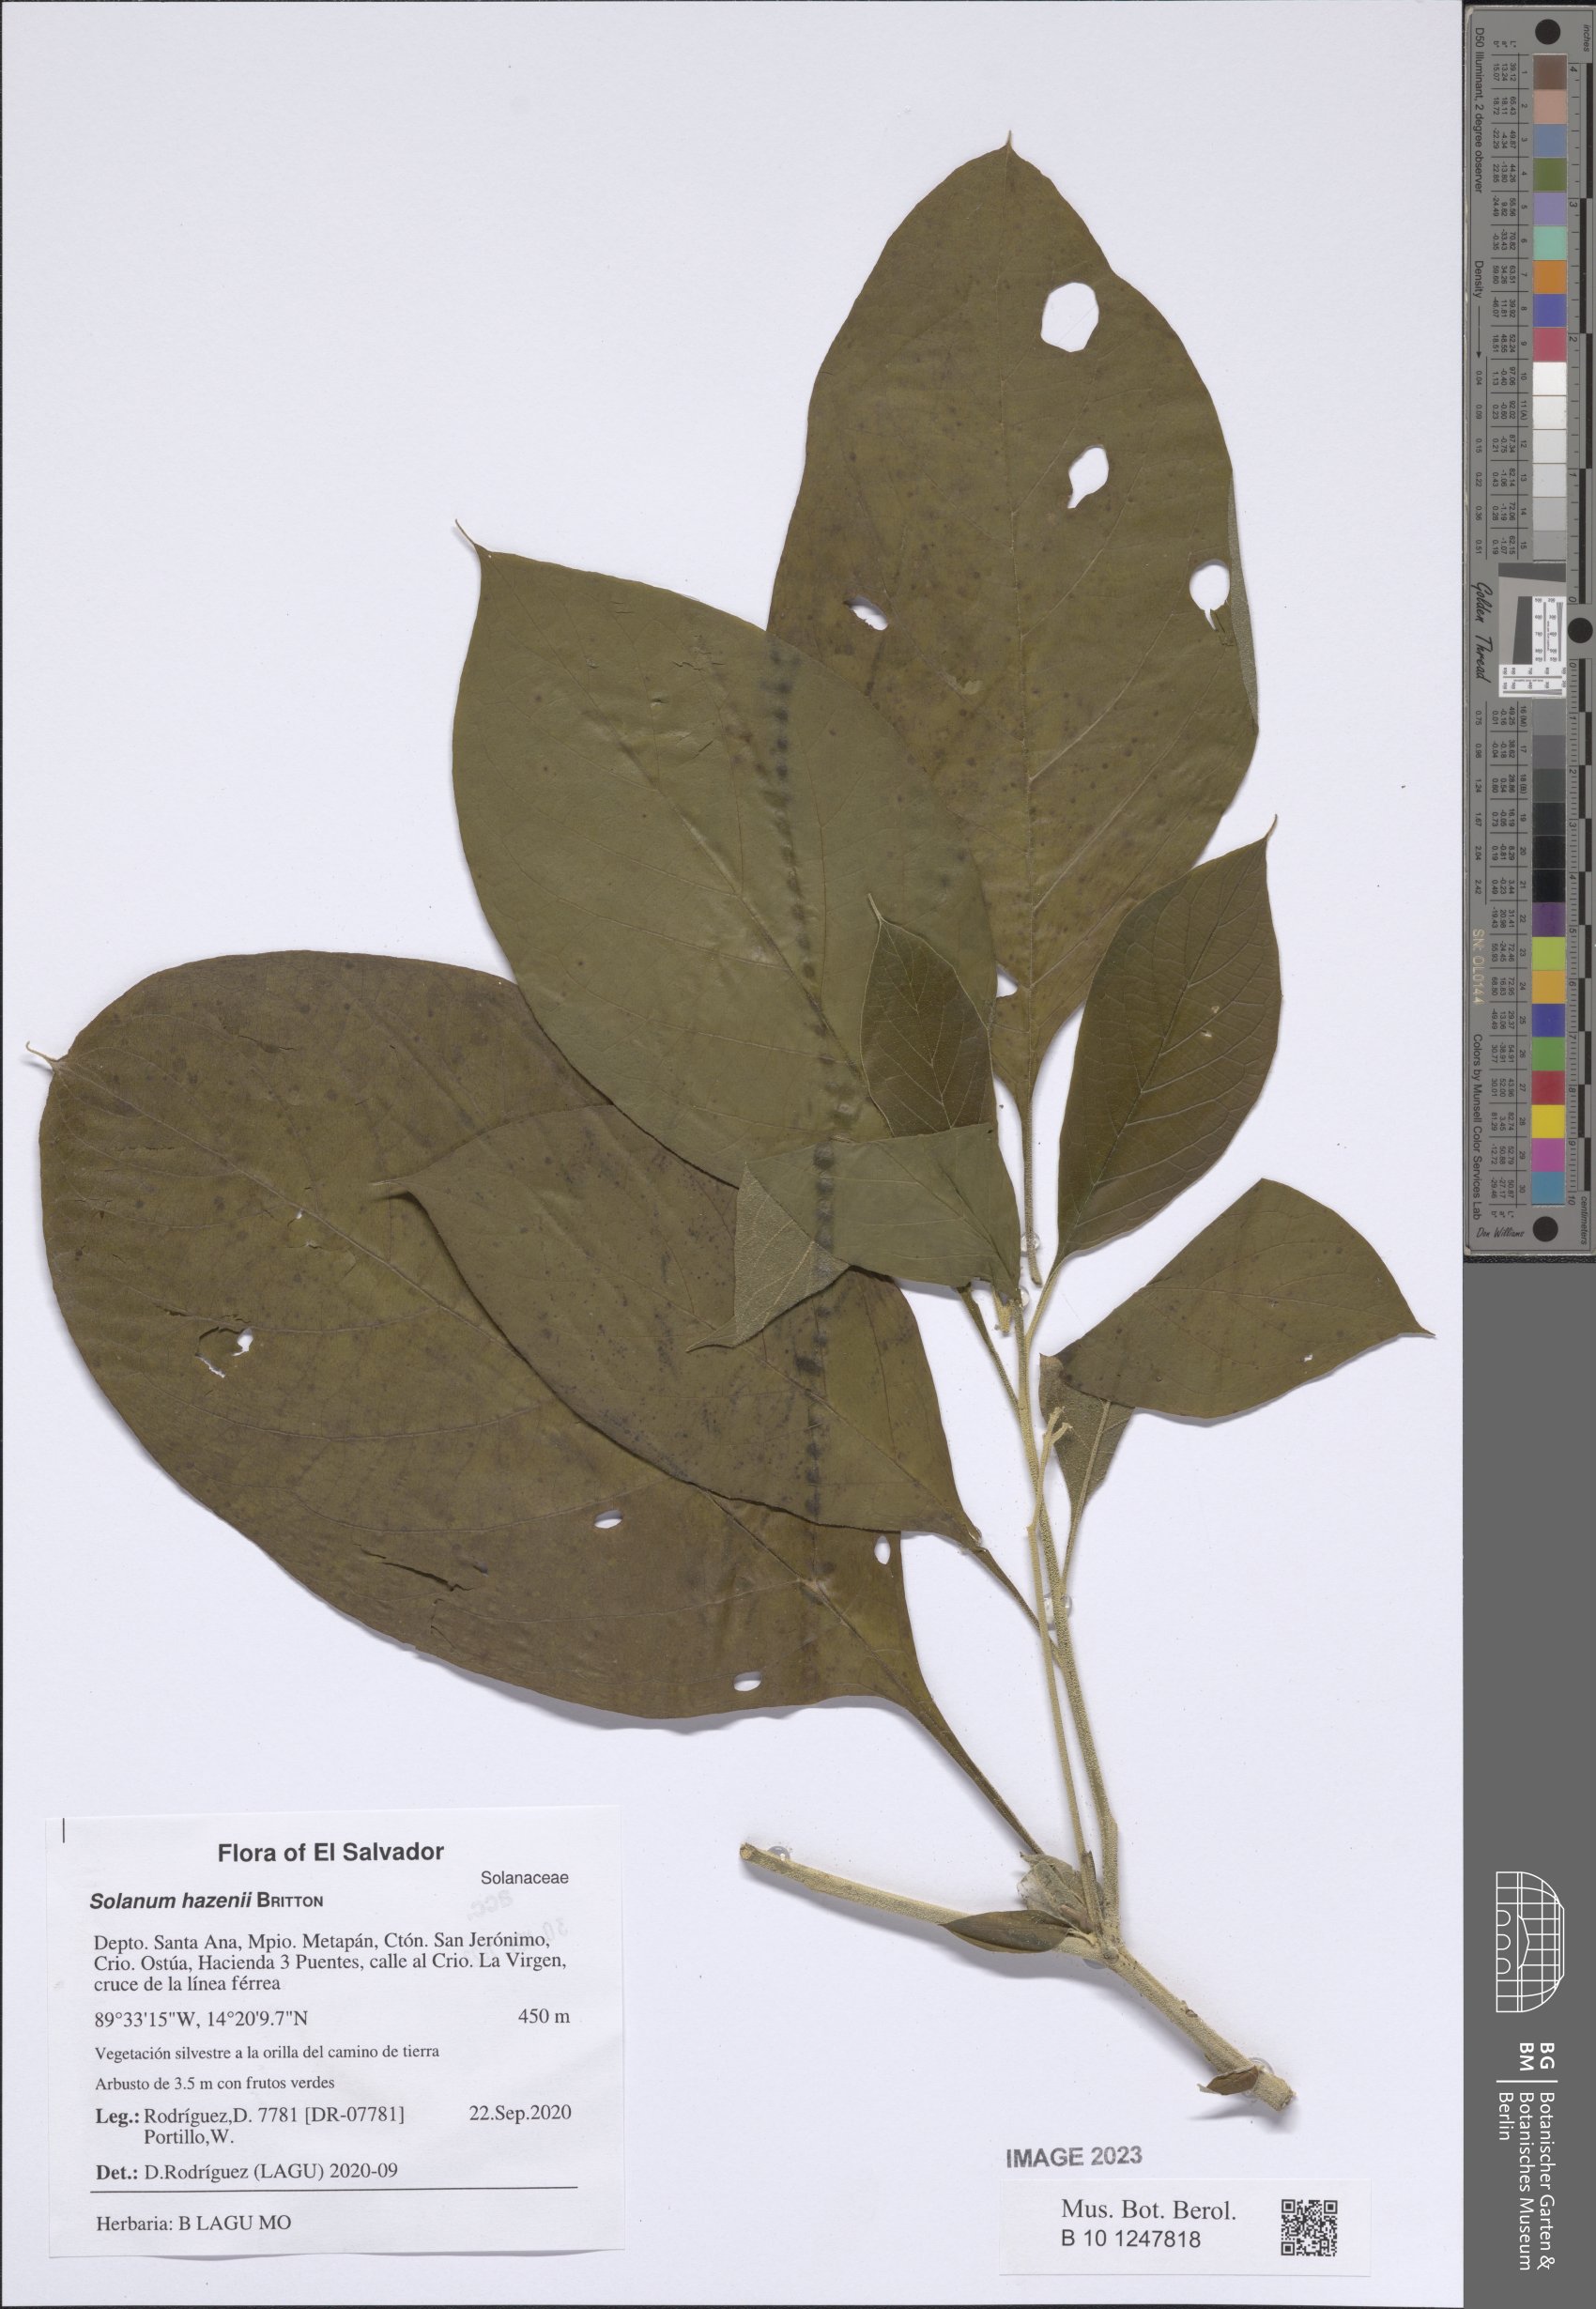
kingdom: Plantae
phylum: Tracheophyta
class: Magnoliopsida
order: Solanales
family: Solanaceae
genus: Solanum
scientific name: Solanum hazenii
